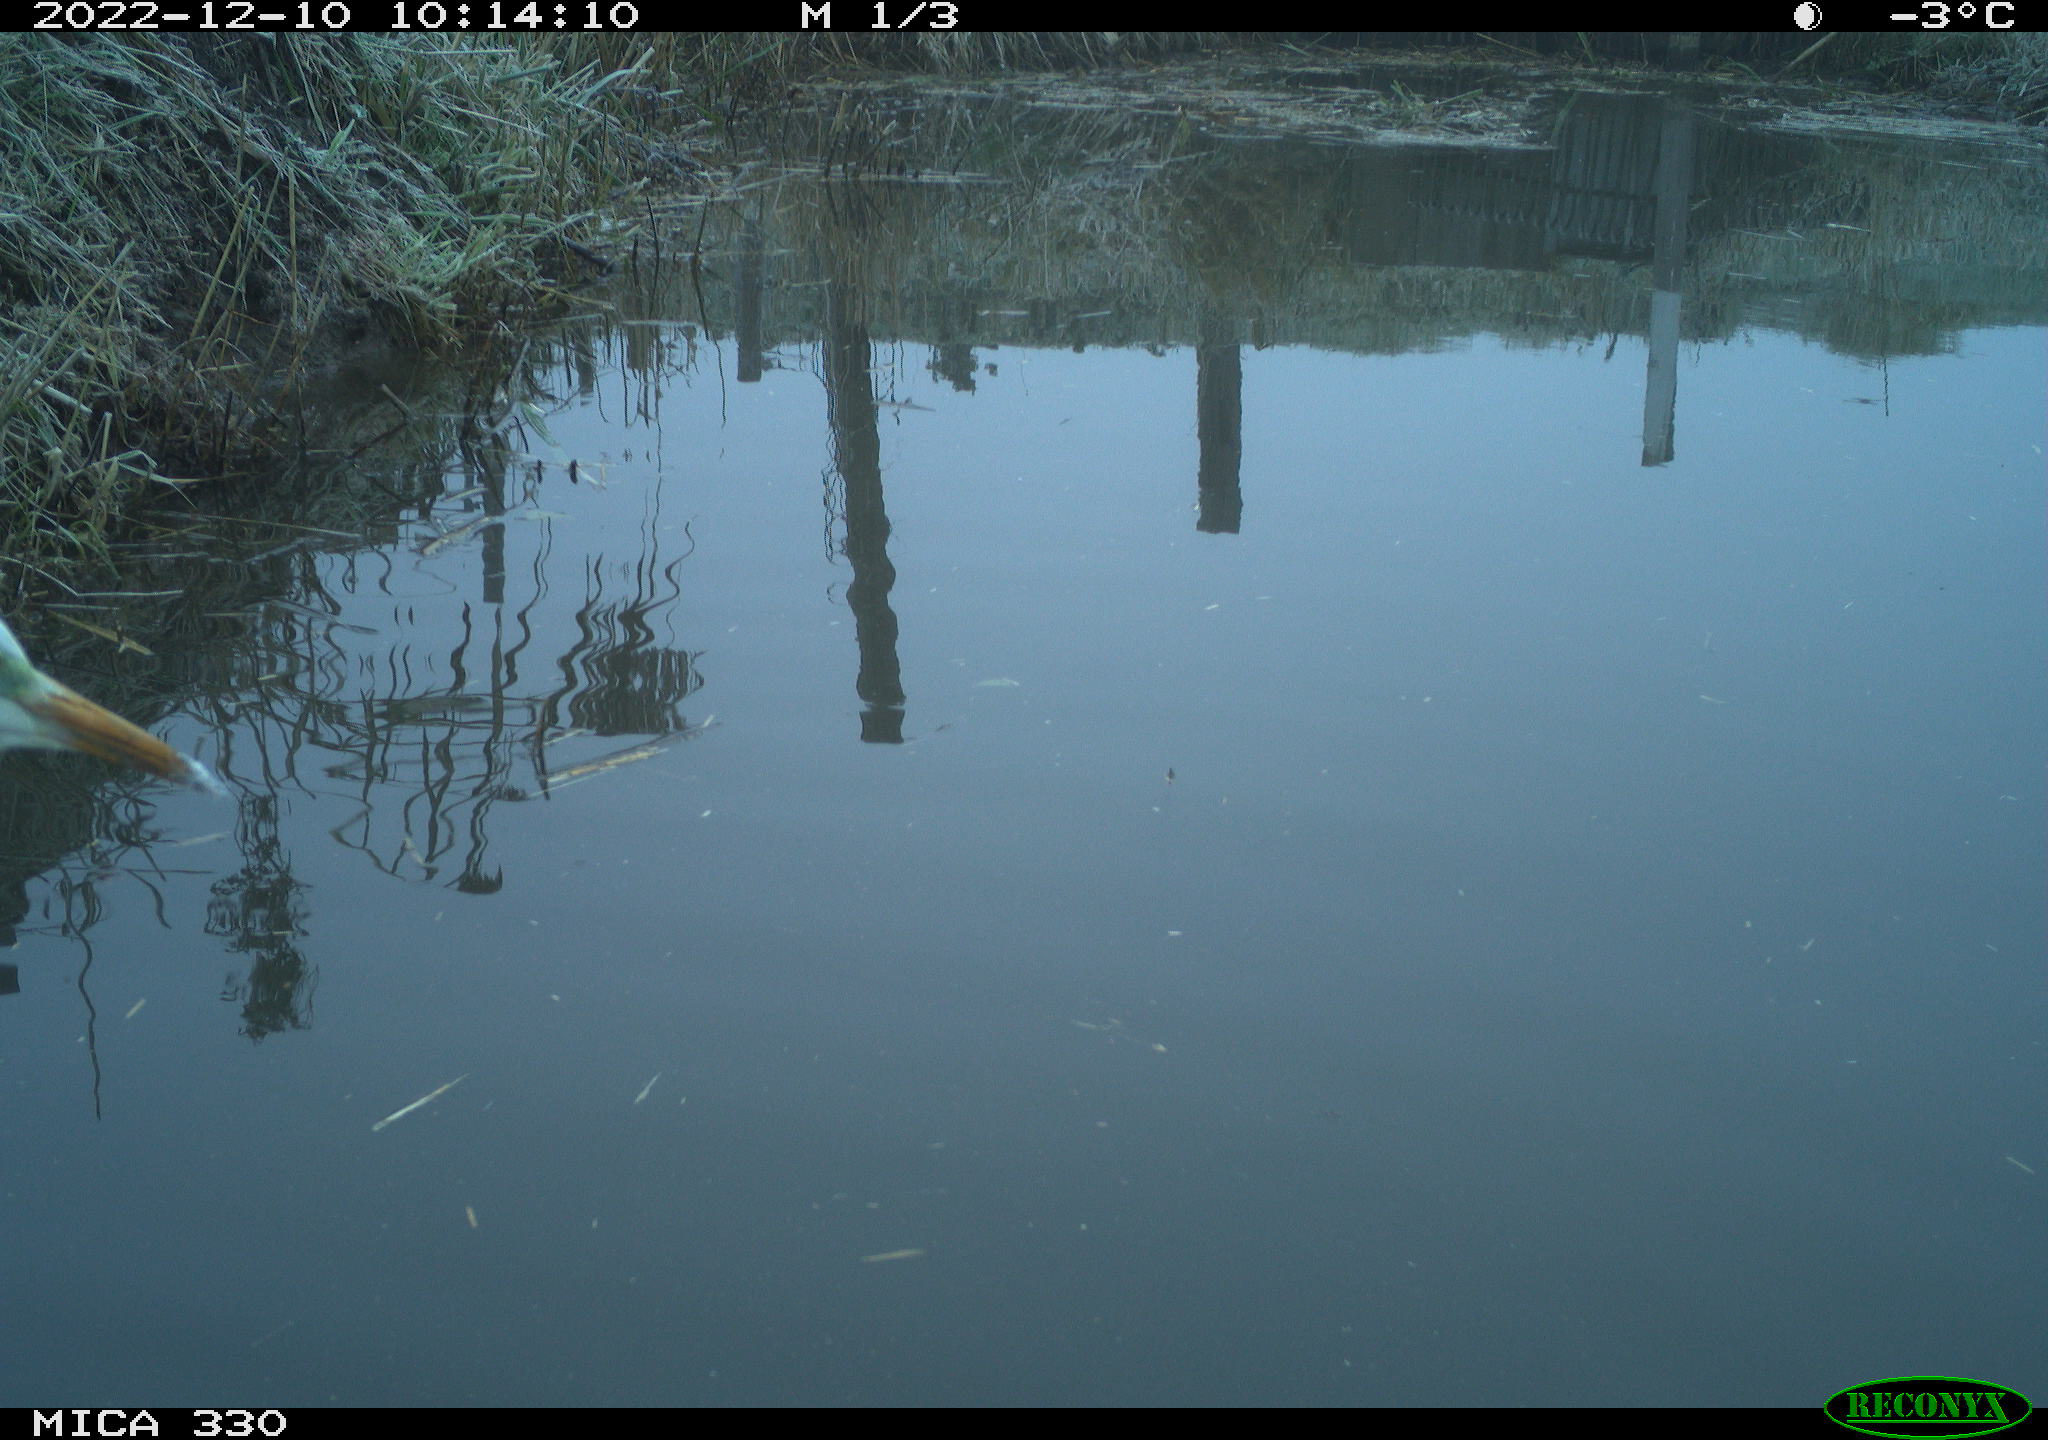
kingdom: Animalia
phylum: Chordata
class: Aves
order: Pelecaniformes
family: Ardeidae
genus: Ardea
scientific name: Ardea alba
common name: Great egret
